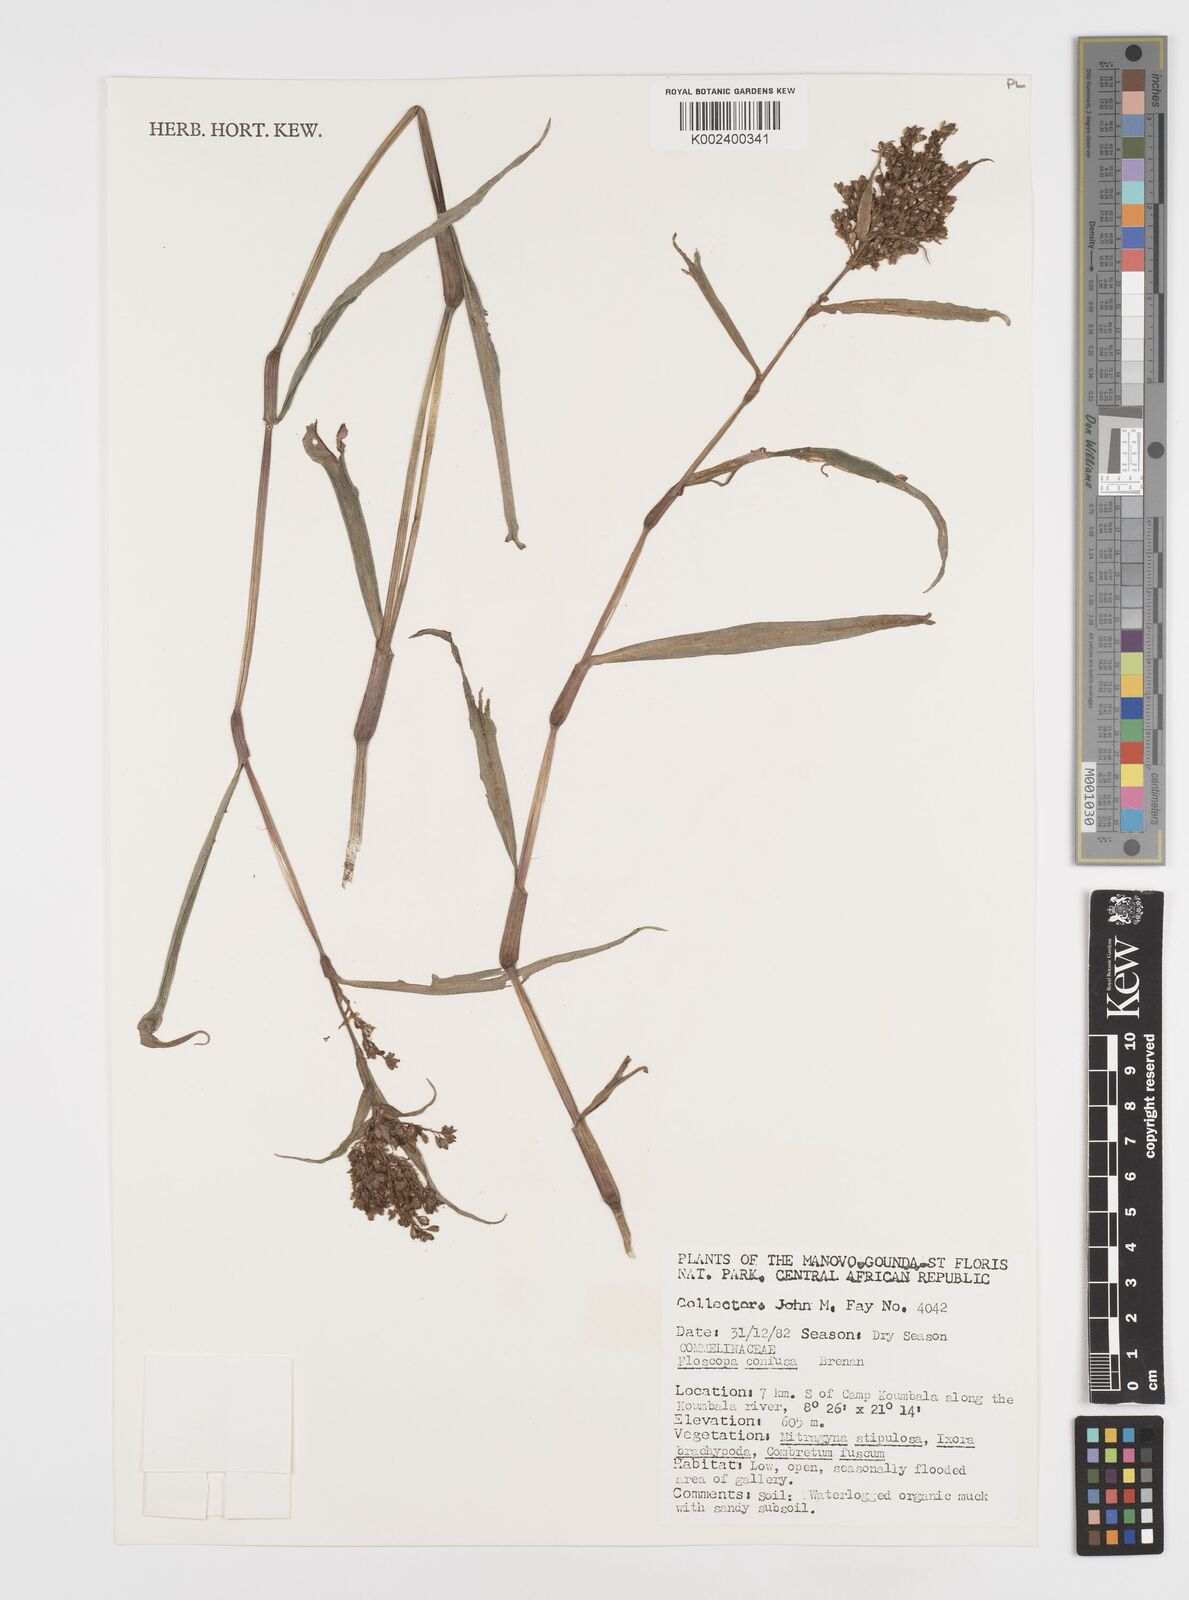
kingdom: Plantae
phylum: Tracheophyta
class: Liliopsida
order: Commelinales
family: Commelinaceae
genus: Floscopa
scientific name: Floscopa confusa
